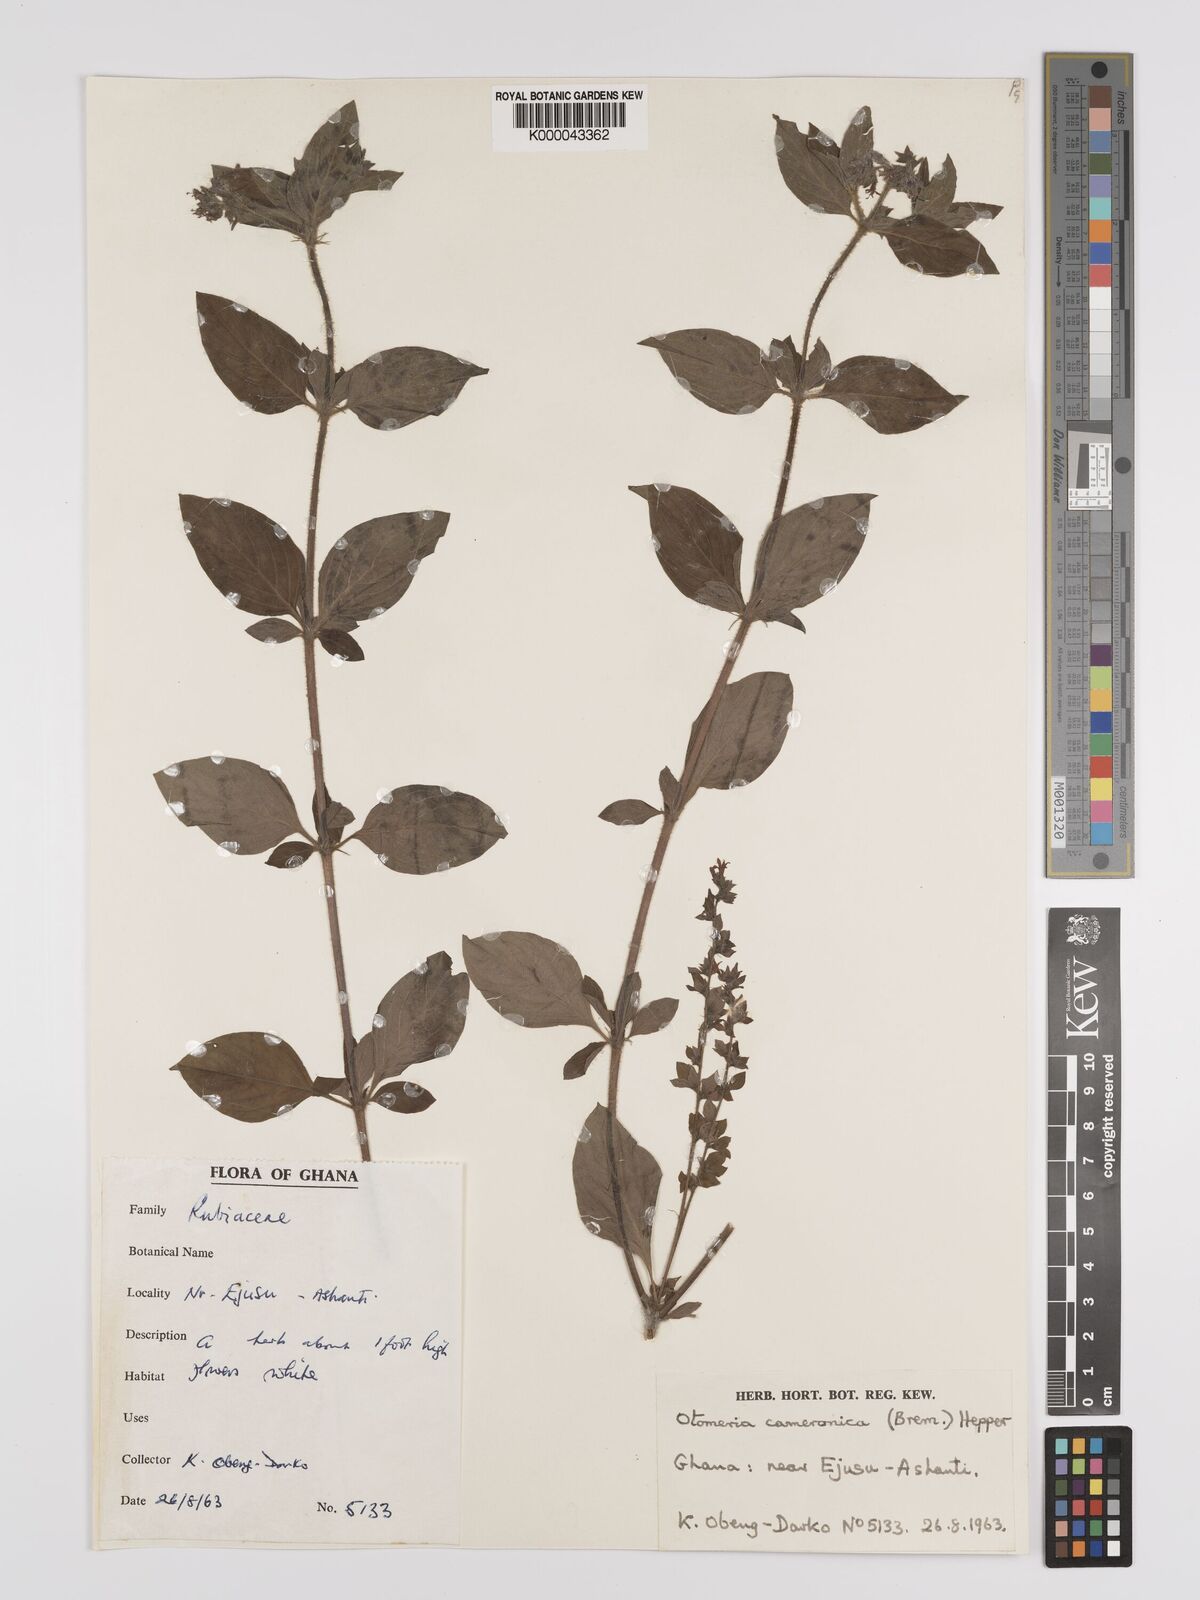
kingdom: Plantae
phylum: Tracheophyta
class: Magnoliopsida
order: Gentianales
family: Rubiaceae
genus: Otomeria
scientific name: Otomeria cameronica
